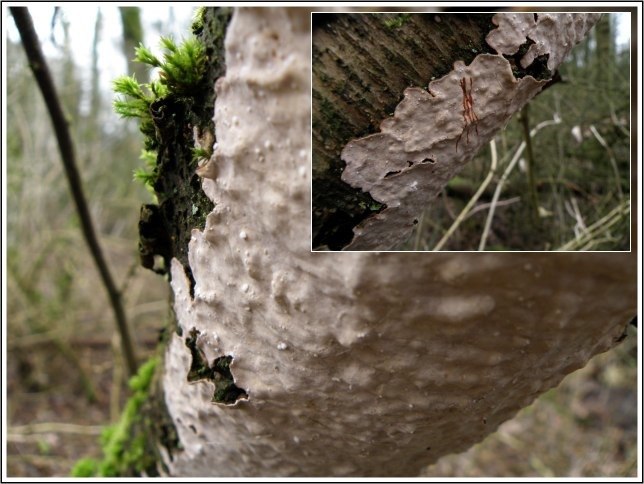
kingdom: Fungi
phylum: Basidiomycota
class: Agaricomycetes
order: Russulales
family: Stereaceae
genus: Stereum
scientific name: Stereum rugosum
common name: rynket lædersvamp
